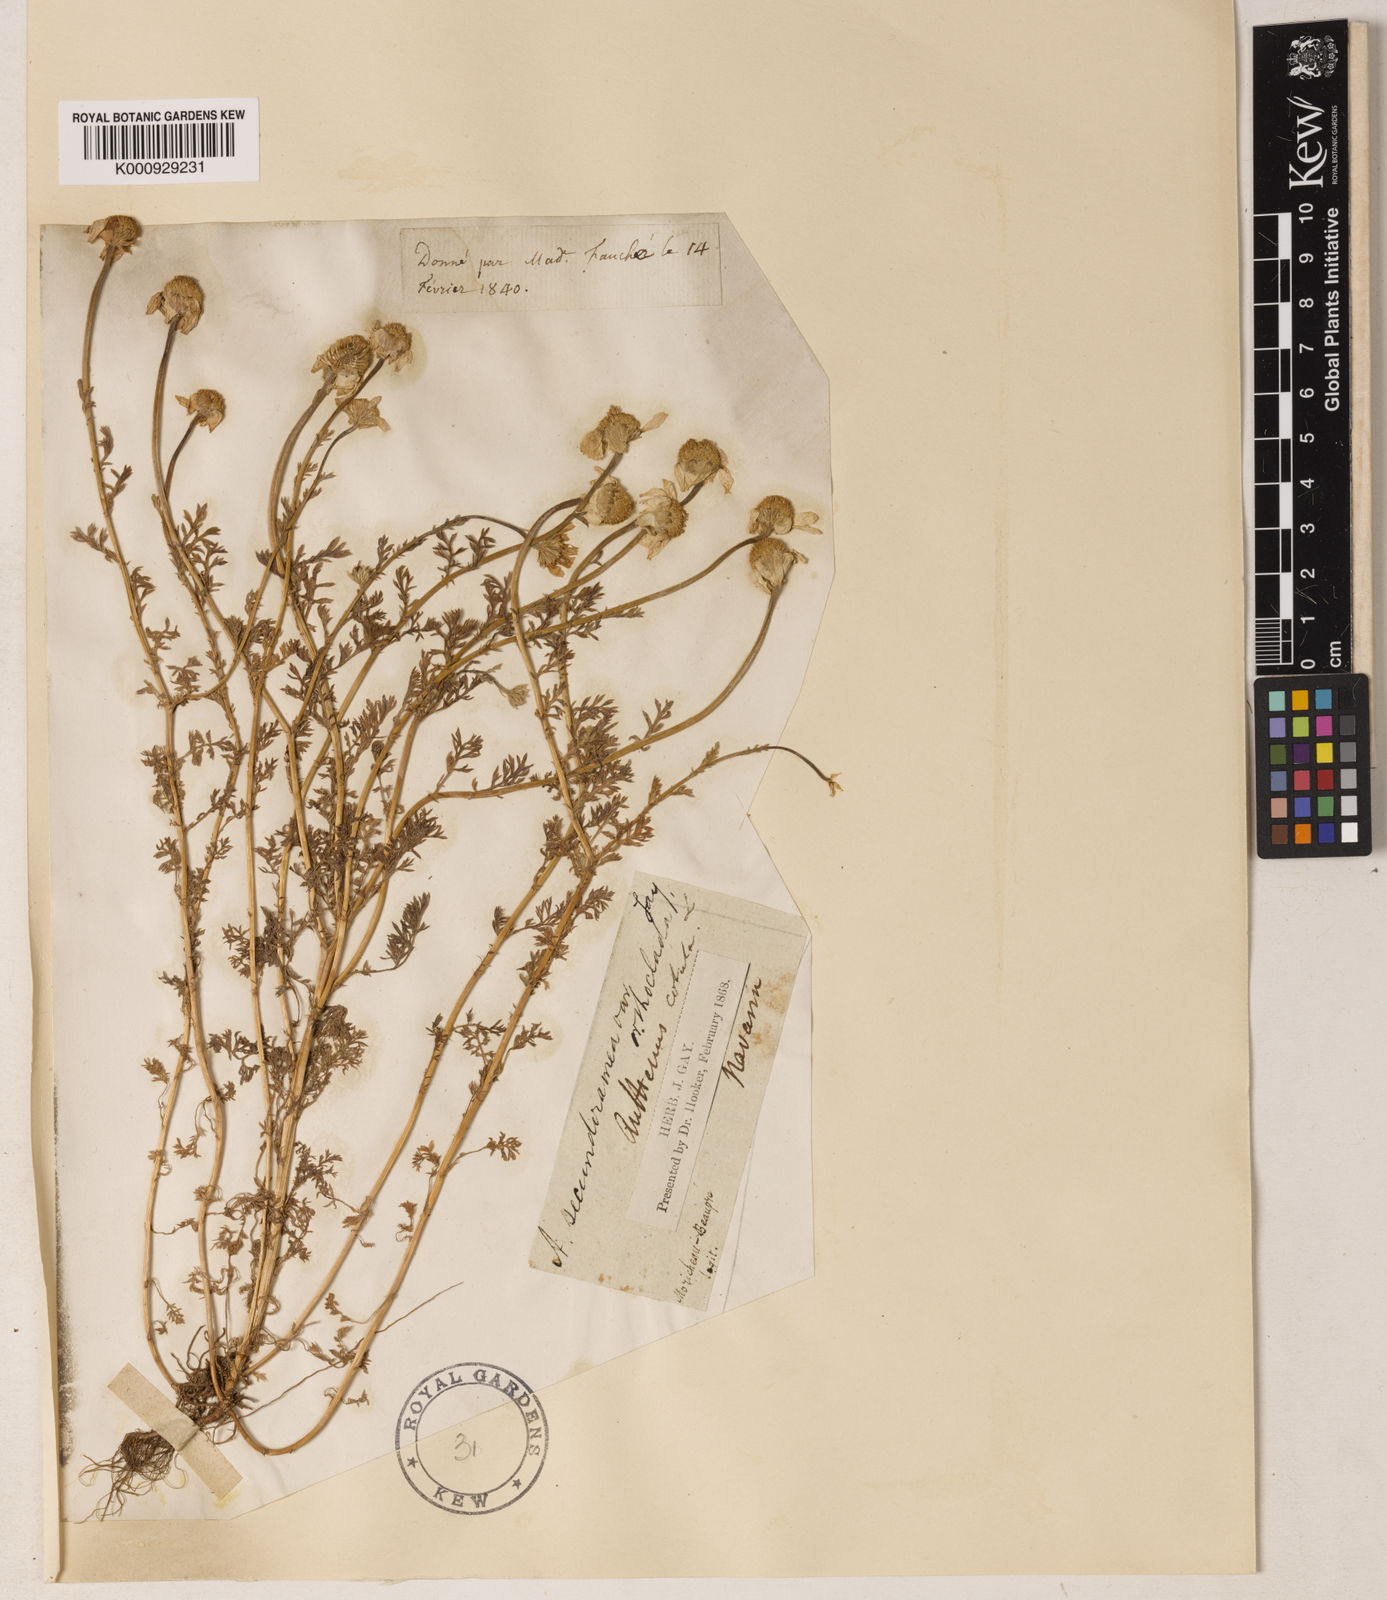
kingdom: Plantae
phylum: Tracheophyta
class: Magnoliopsida
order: Asterales
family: Asteraceae
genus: Allardia
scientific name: Allardia glabra
